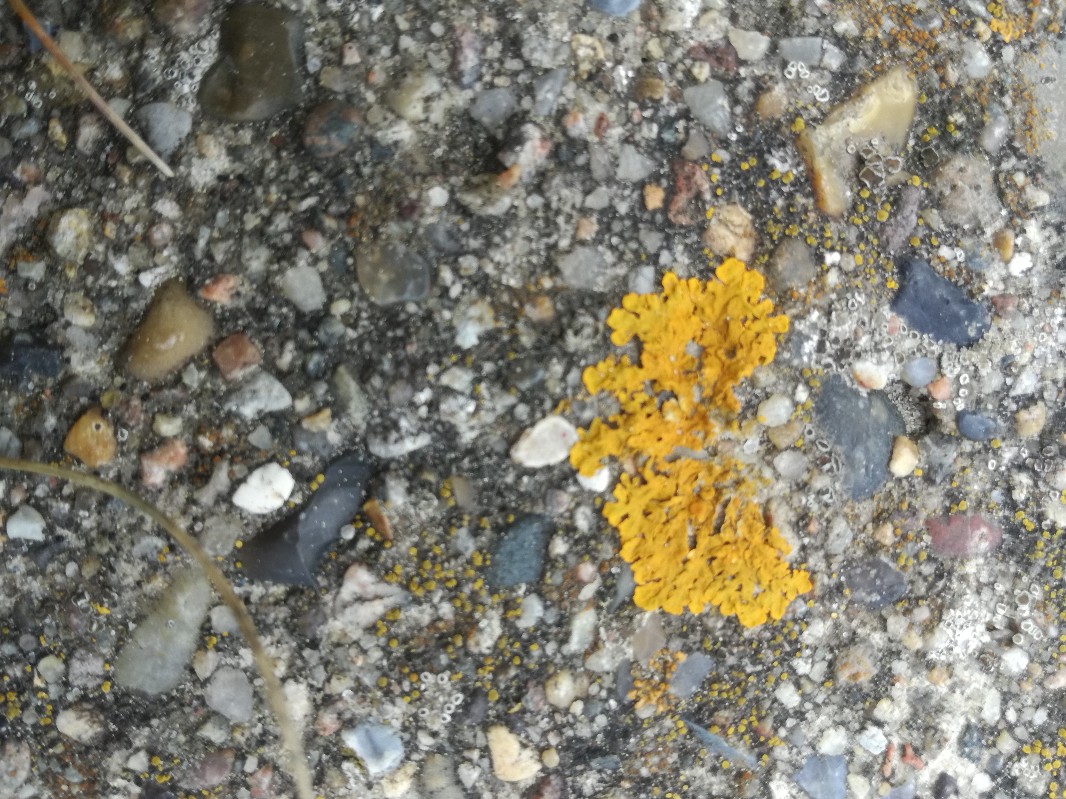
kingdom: Fungi
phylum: Ascomycota
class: Lecanoromycetes
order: Teloschistales
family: Teloschistaceae
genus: Xanthoria
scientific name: Xanthoria parietina
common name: almindelig væggelav
